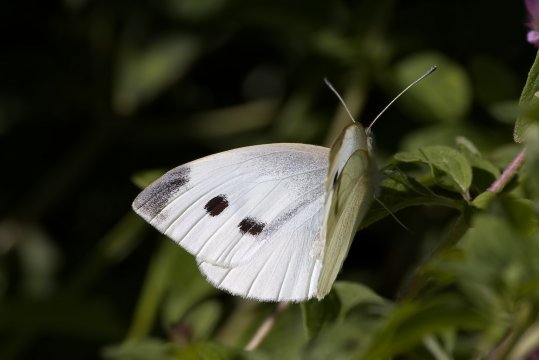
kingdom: Animalia
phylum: Arthropoda
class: Insecta
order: Lepidoptera
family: Pieridae
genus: Pieris
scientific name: Pieris rapae
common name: Cabbage White
